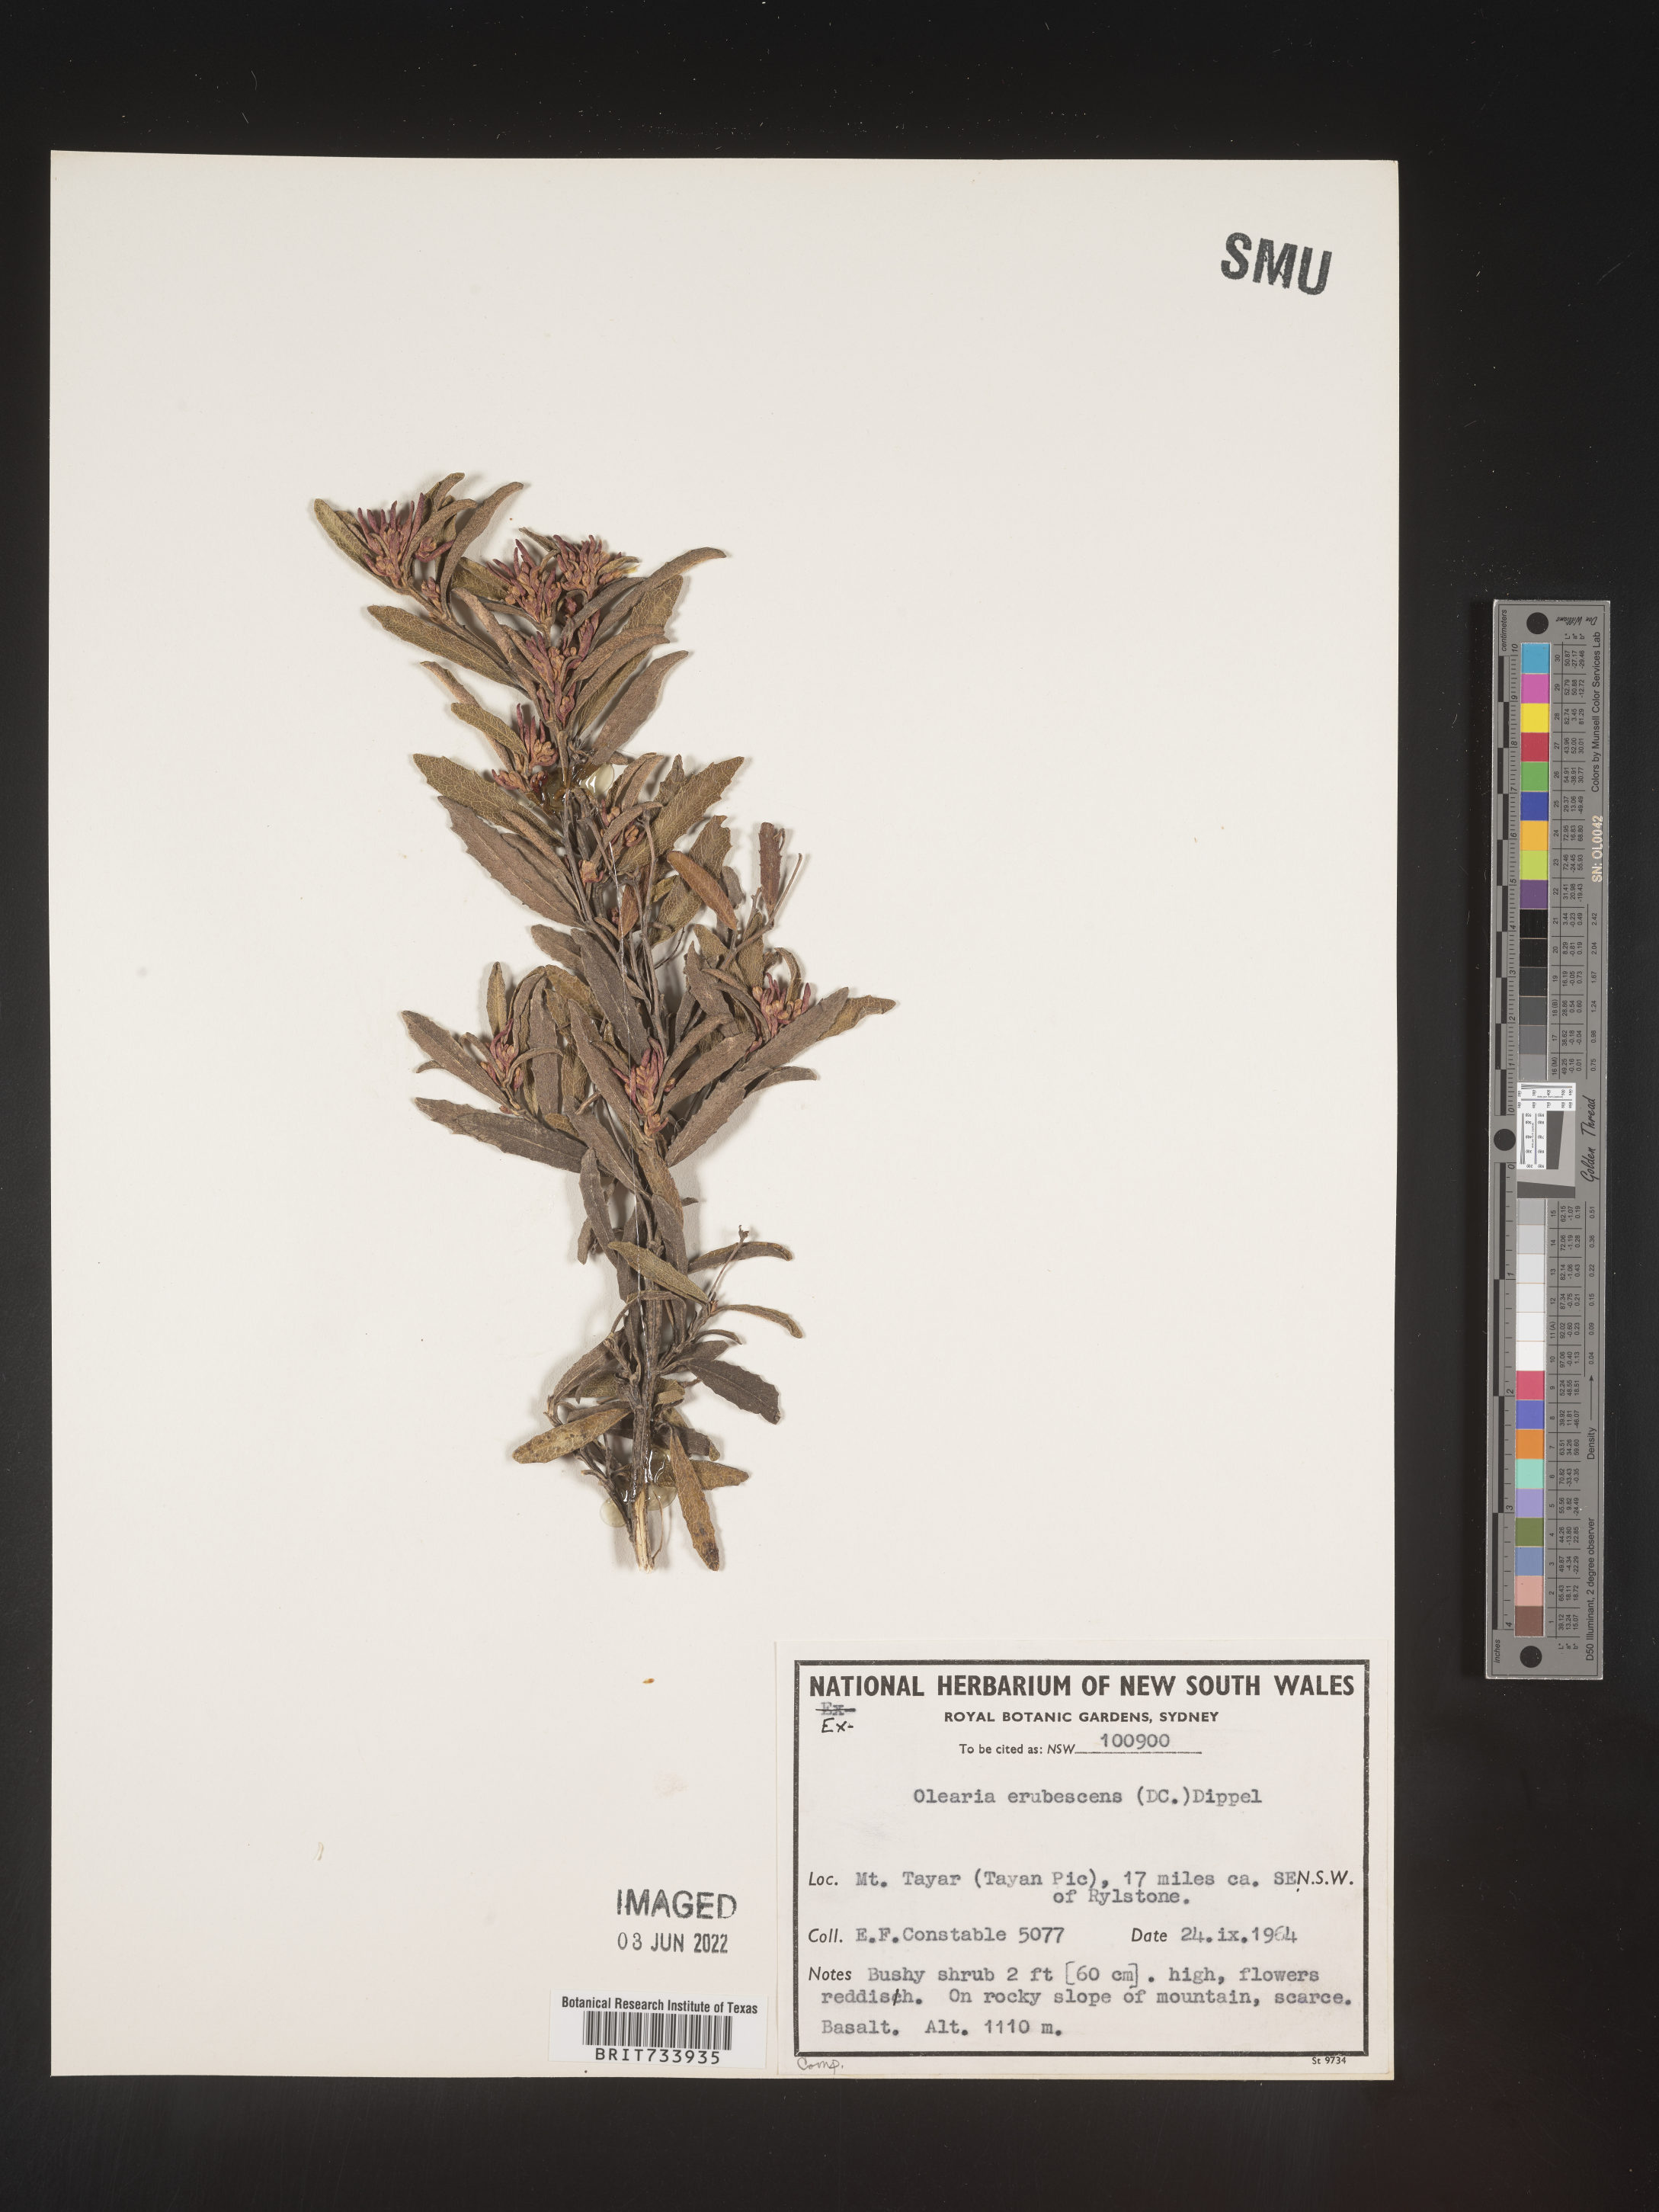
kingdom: Plantae
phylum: Tracheophyta
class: Magnoliopsida
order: Asterales
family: Asteraceae
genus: Olearia
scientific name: Olearia
